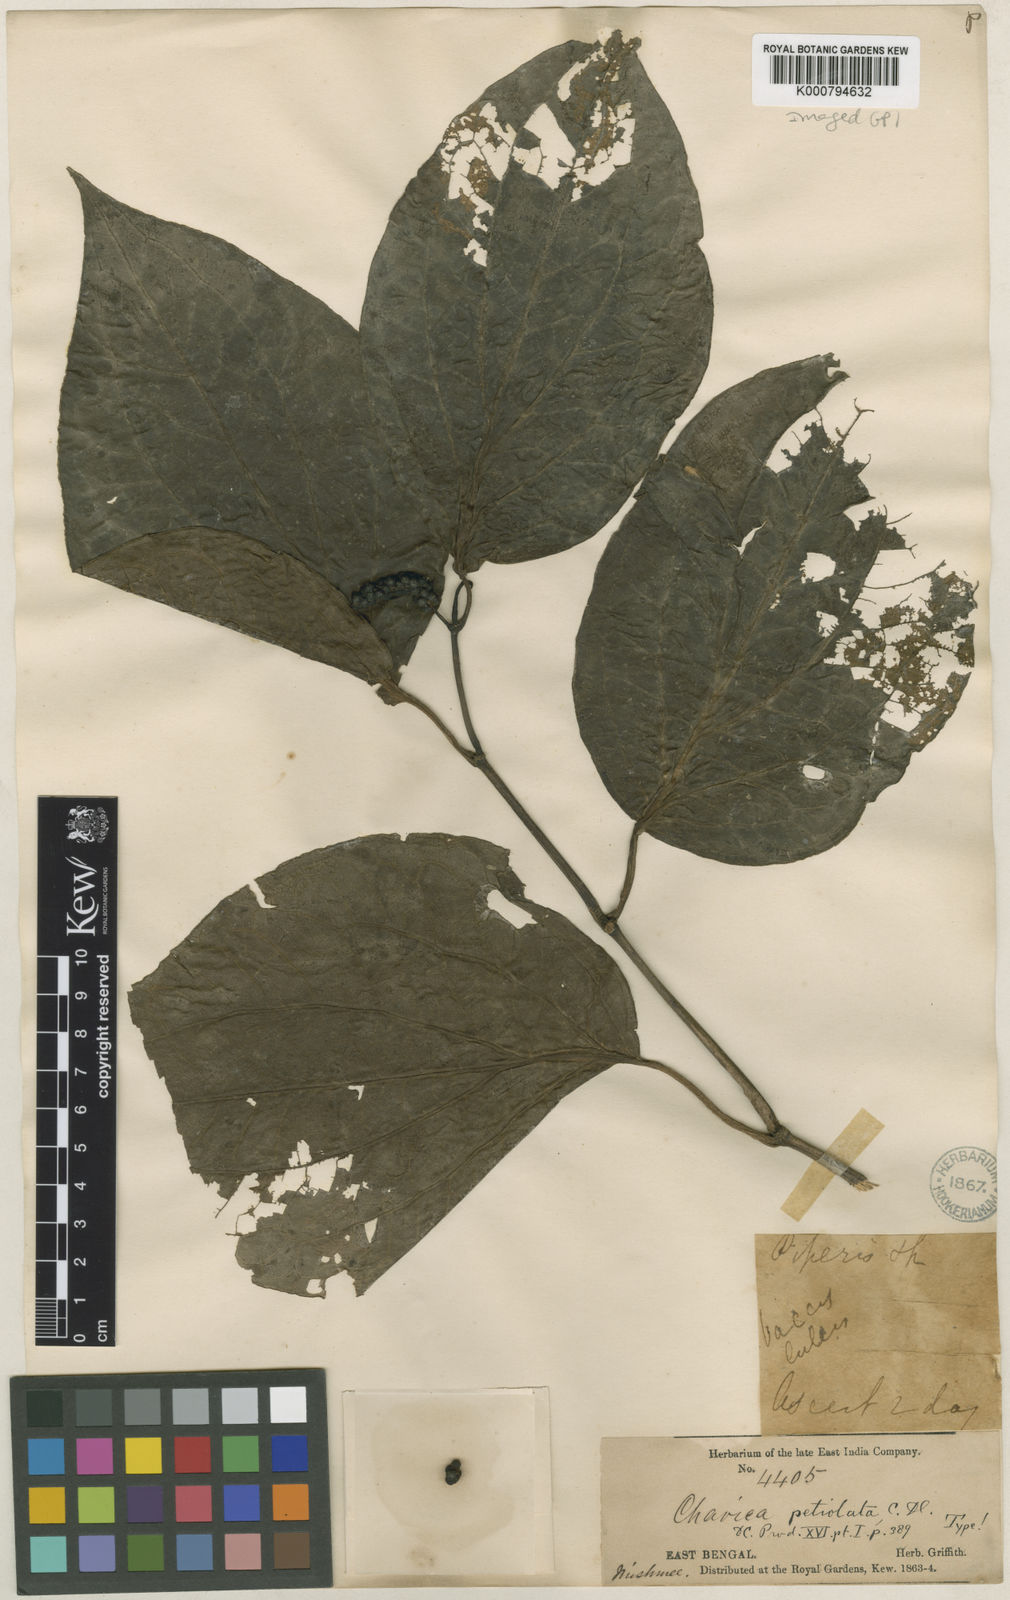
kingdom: Plantae
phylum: Tracheophyta
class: Magnoliopsida
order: Piperales
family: Piperaceae
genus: Piper
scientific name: Piper thomsonii
